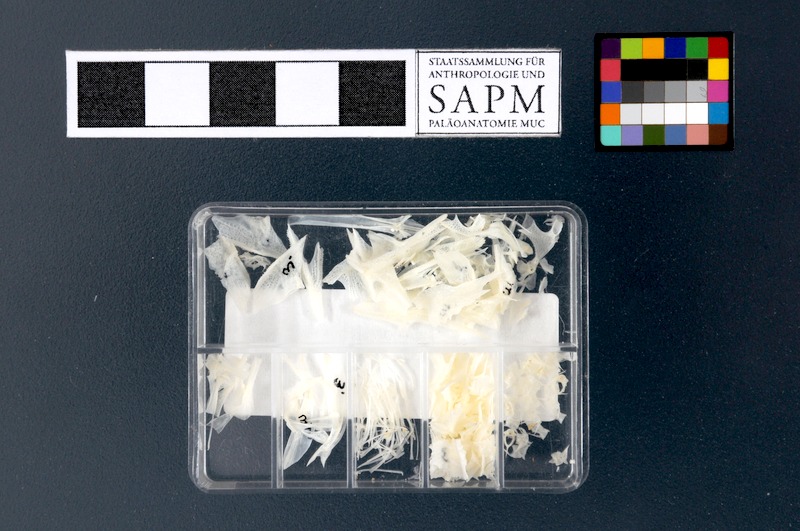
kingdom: Animalia
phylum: Chordata
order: Scorpaeniformes
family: Peristediidae
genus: Peristedion
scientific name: Peristedion cataphractum
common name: Armed gurnard
